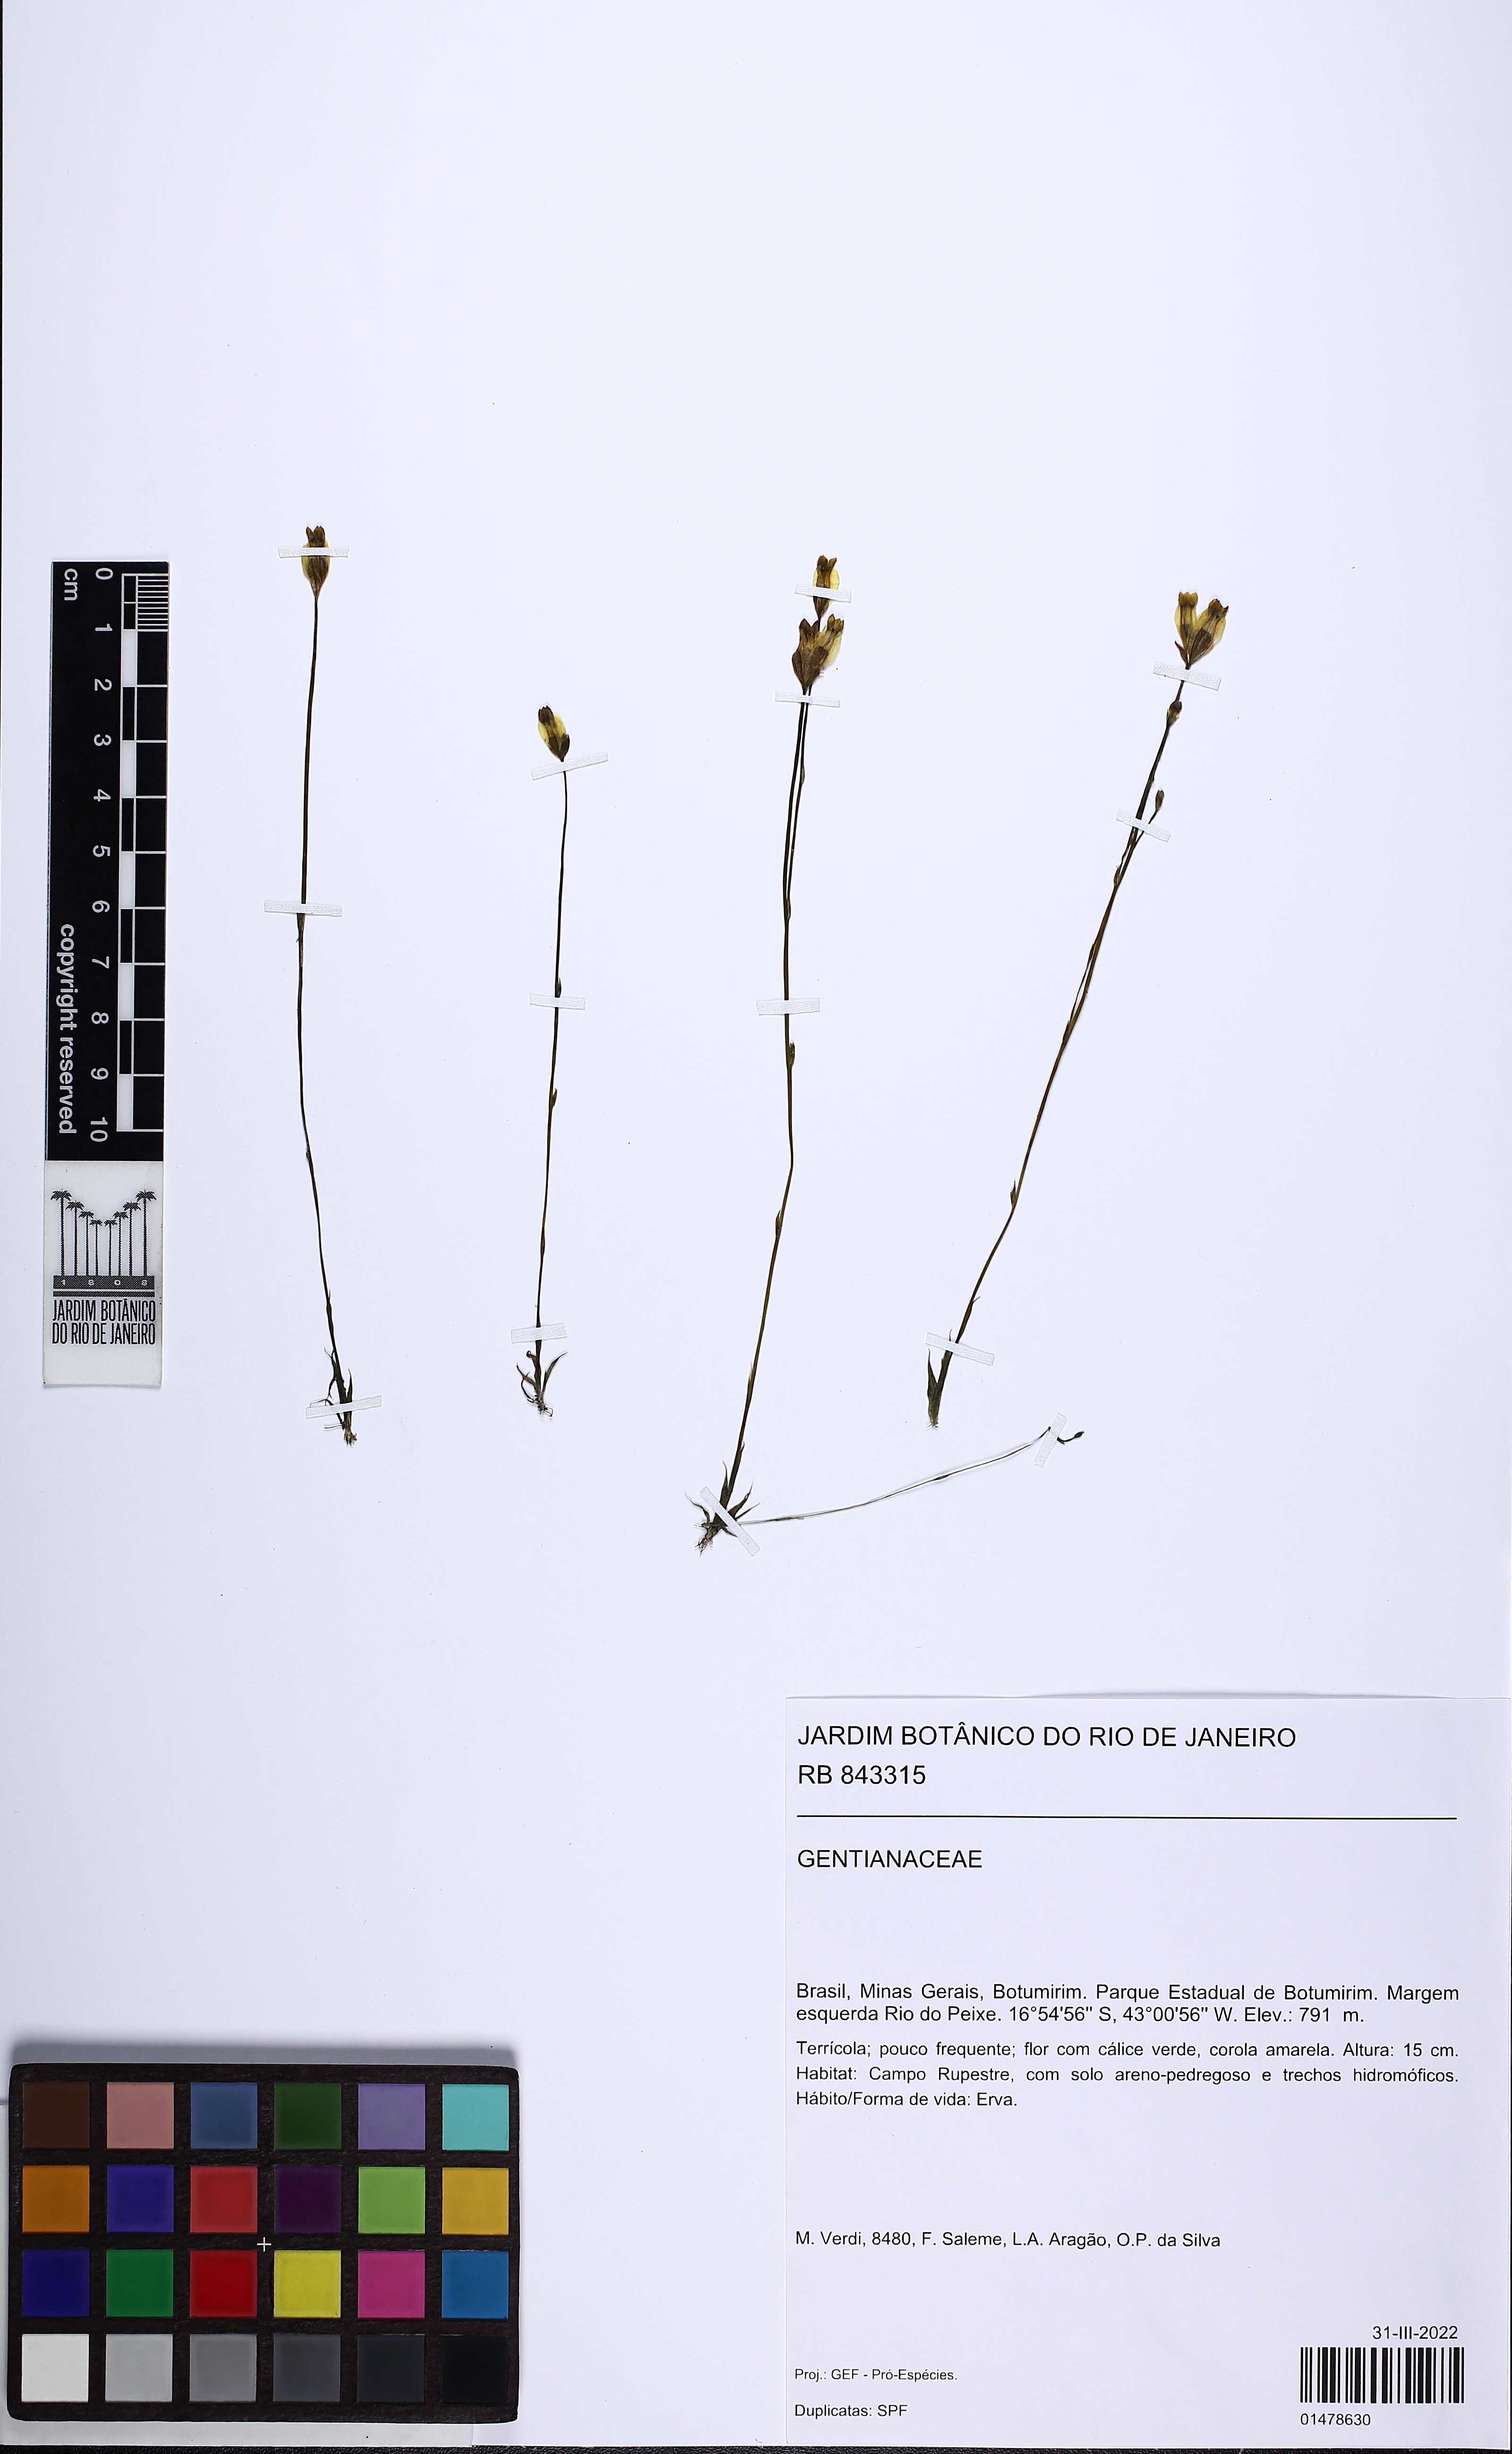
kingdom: Plantae
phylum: Tracheophyta
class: Magnoliopsida
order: Gentianales
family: Gentianaceae
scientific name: Gentianaceae
